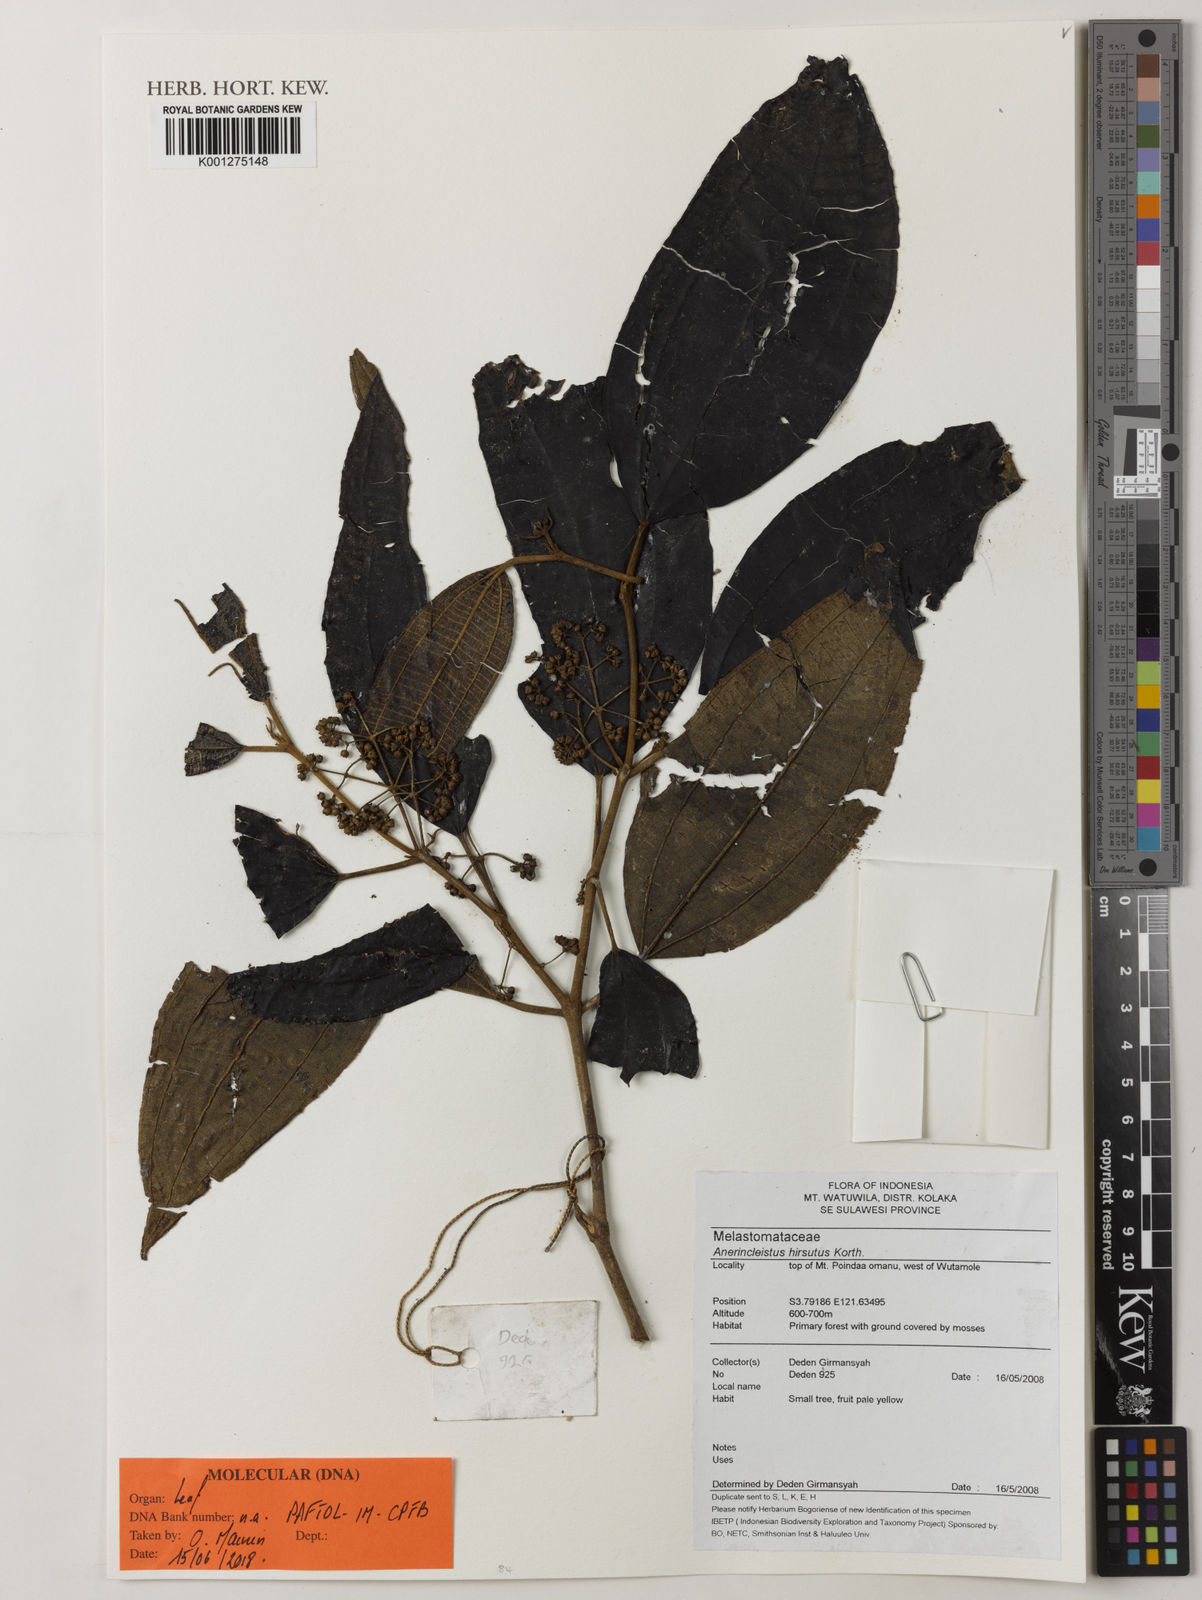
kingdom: Plantae
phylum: Tracheophyta
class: Magnoliopsida
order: Myrtales
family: Melastomataceae
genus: Anerincleistus
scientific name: Anerincleistus hirsutus
